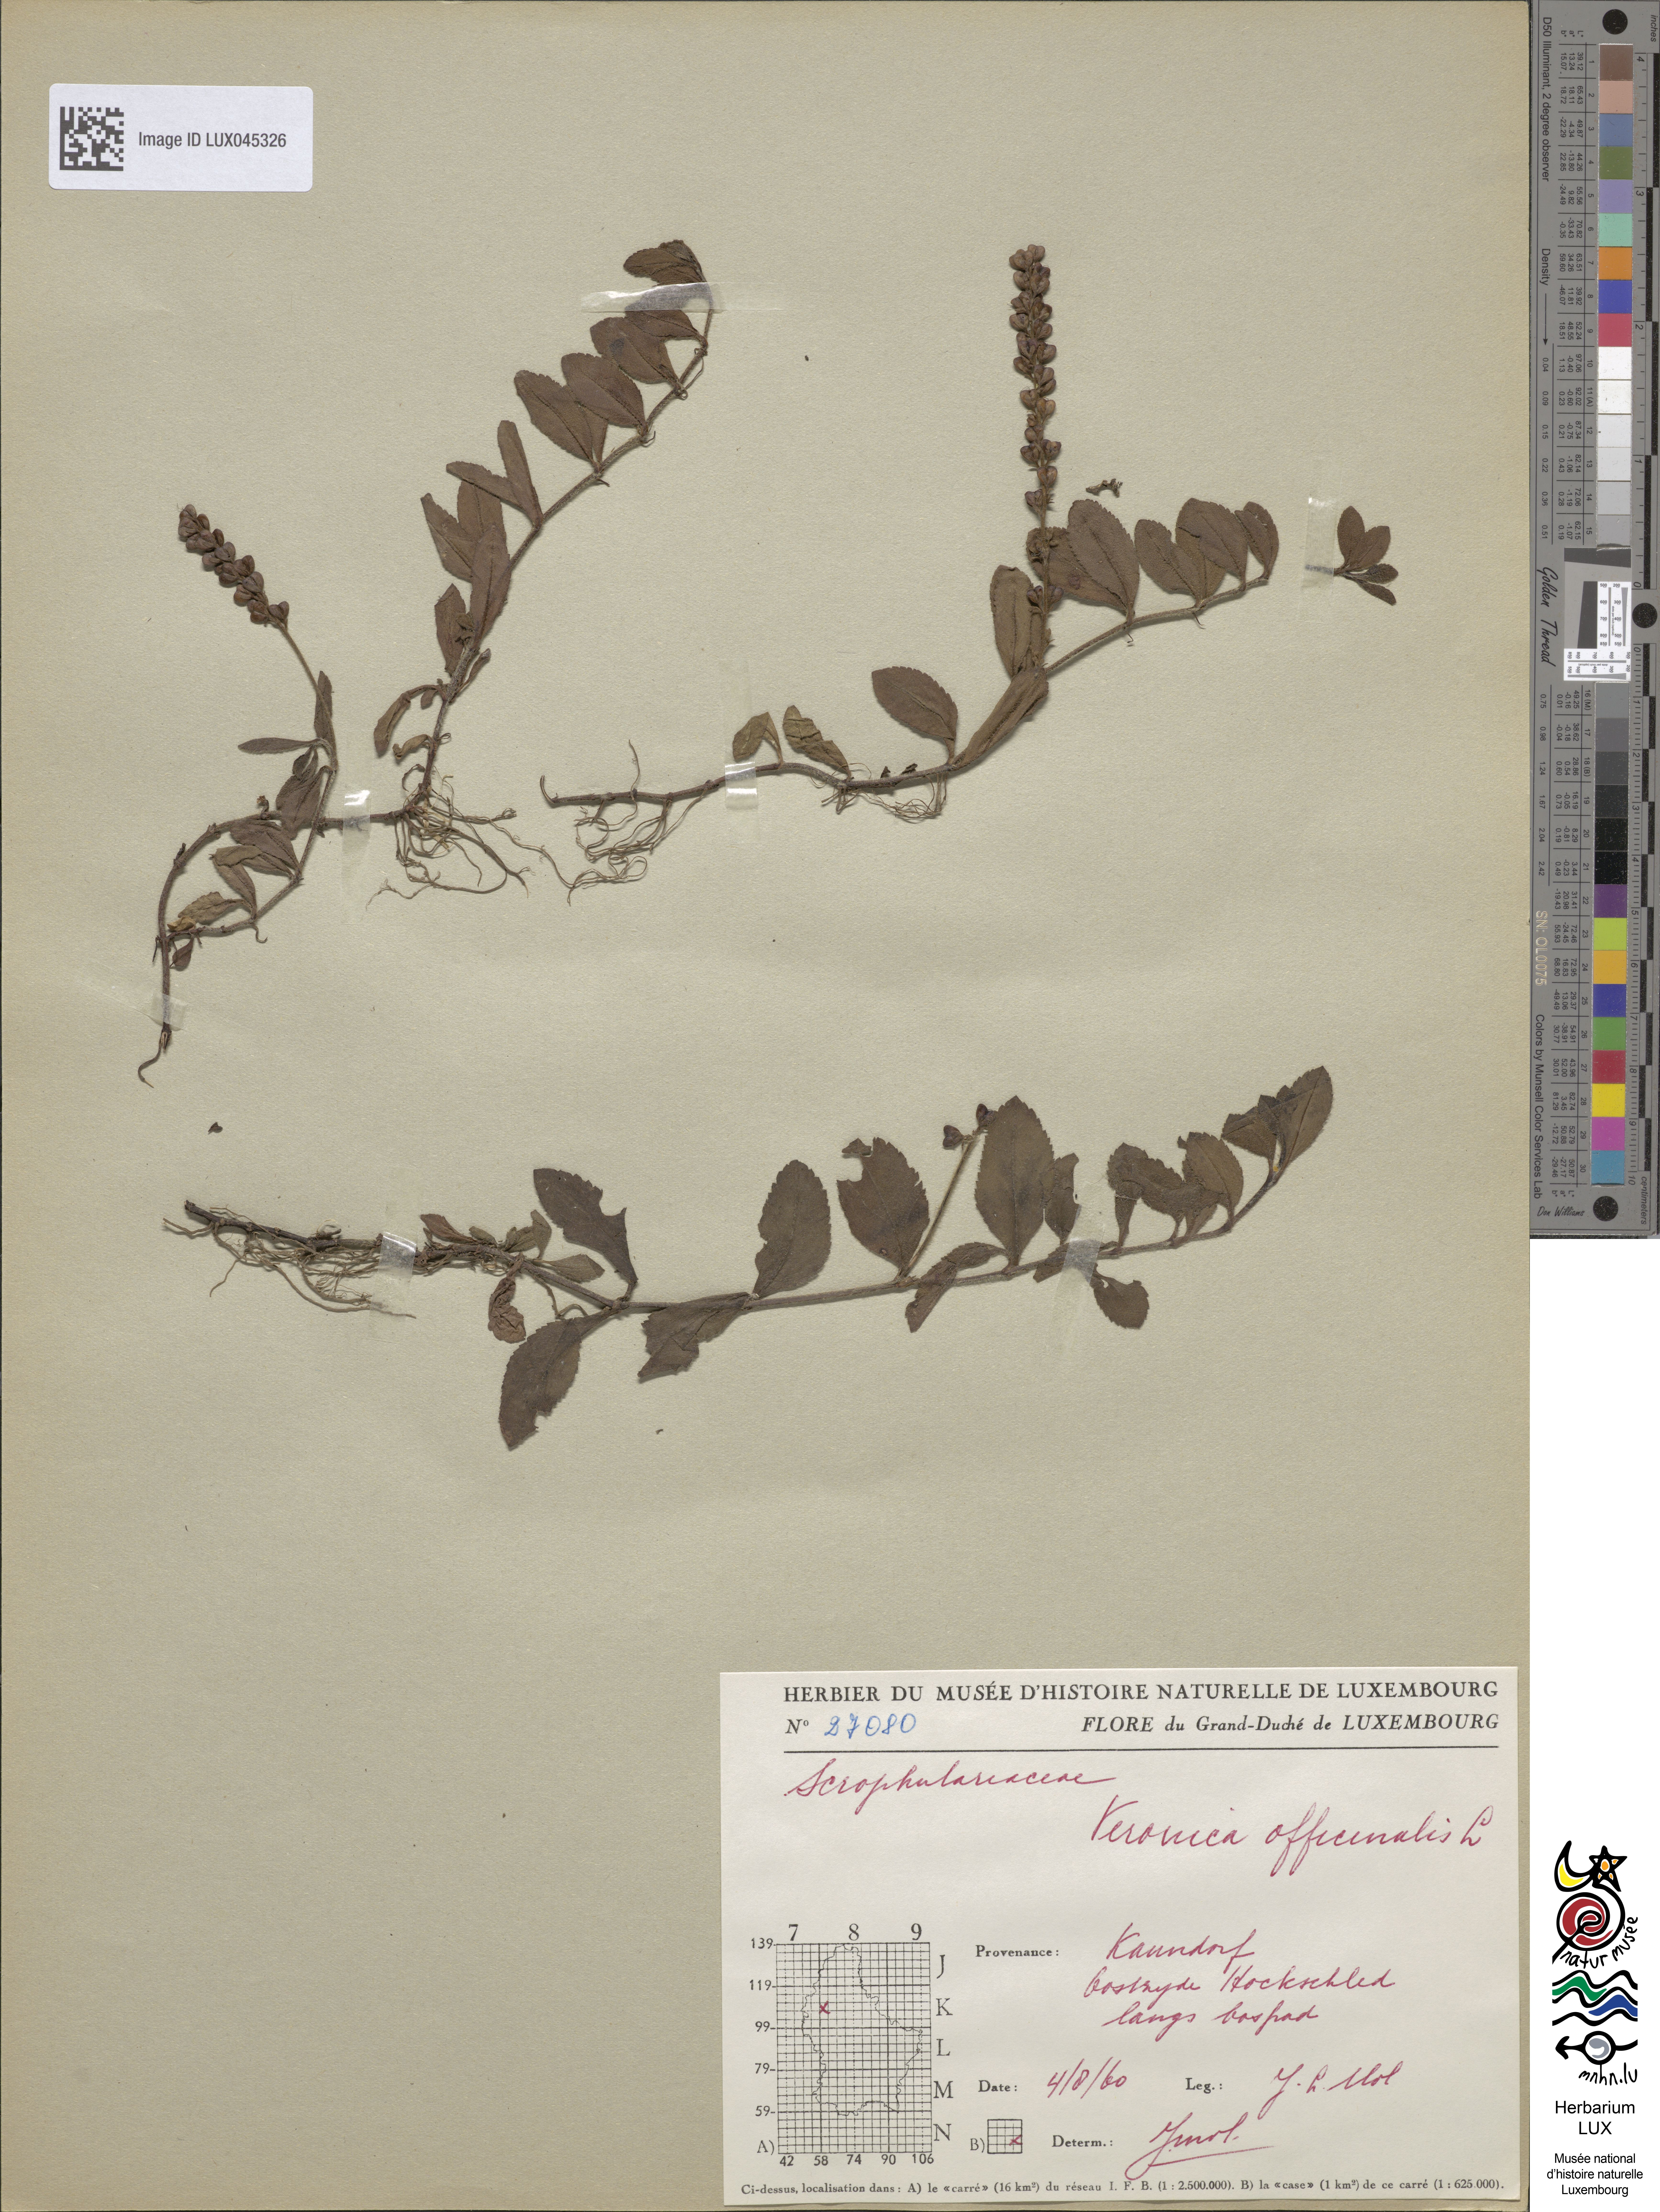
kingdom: Plantae
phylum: Tracheophyta
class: Magnoliopsida
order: Lamiales
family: Plantaginaceae
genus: Veronica
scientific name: Veronica officinalis
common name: Common speedwell
